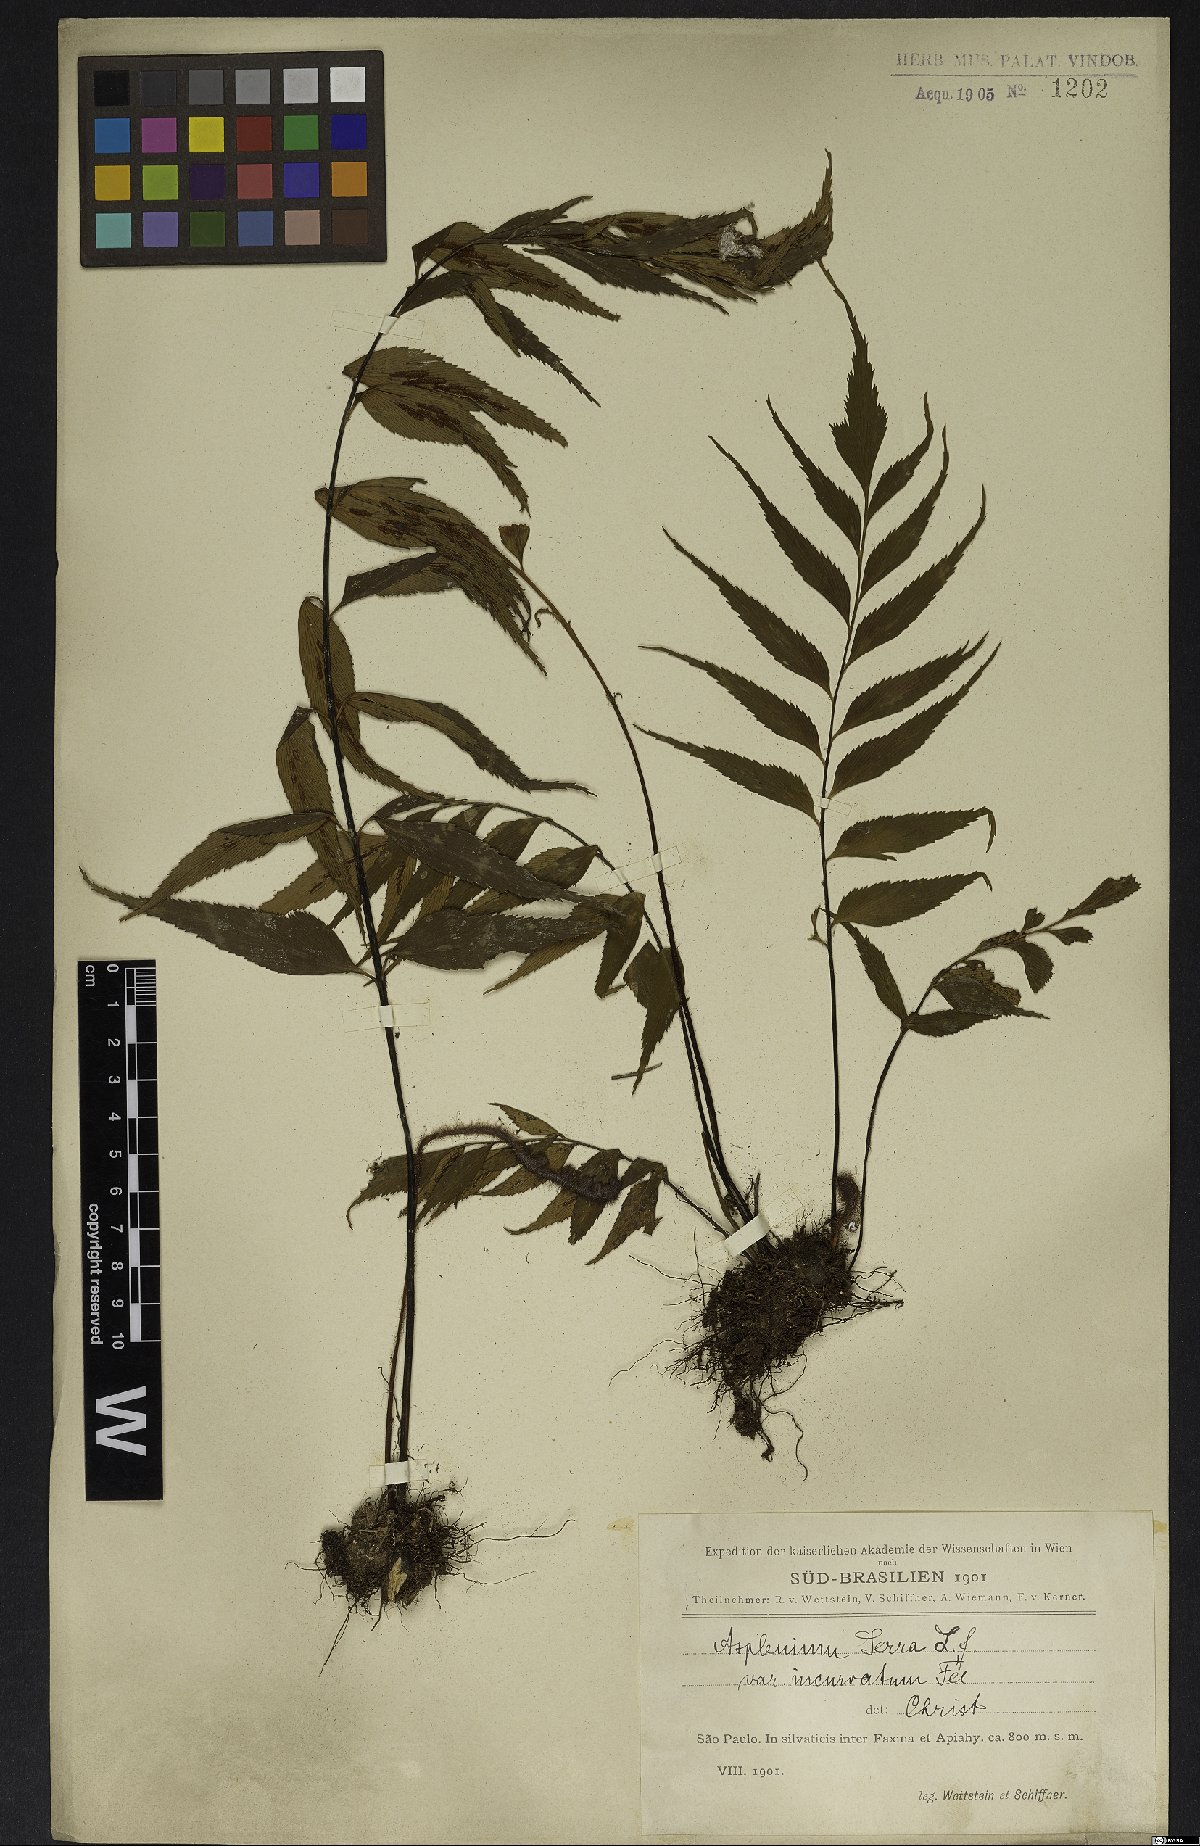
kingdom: Plantae
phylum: Tracheophyta
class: Polypodiopsida
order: Polypodiales
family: Aspleniaceae
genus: Asplenium
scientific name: Asplenium serra
